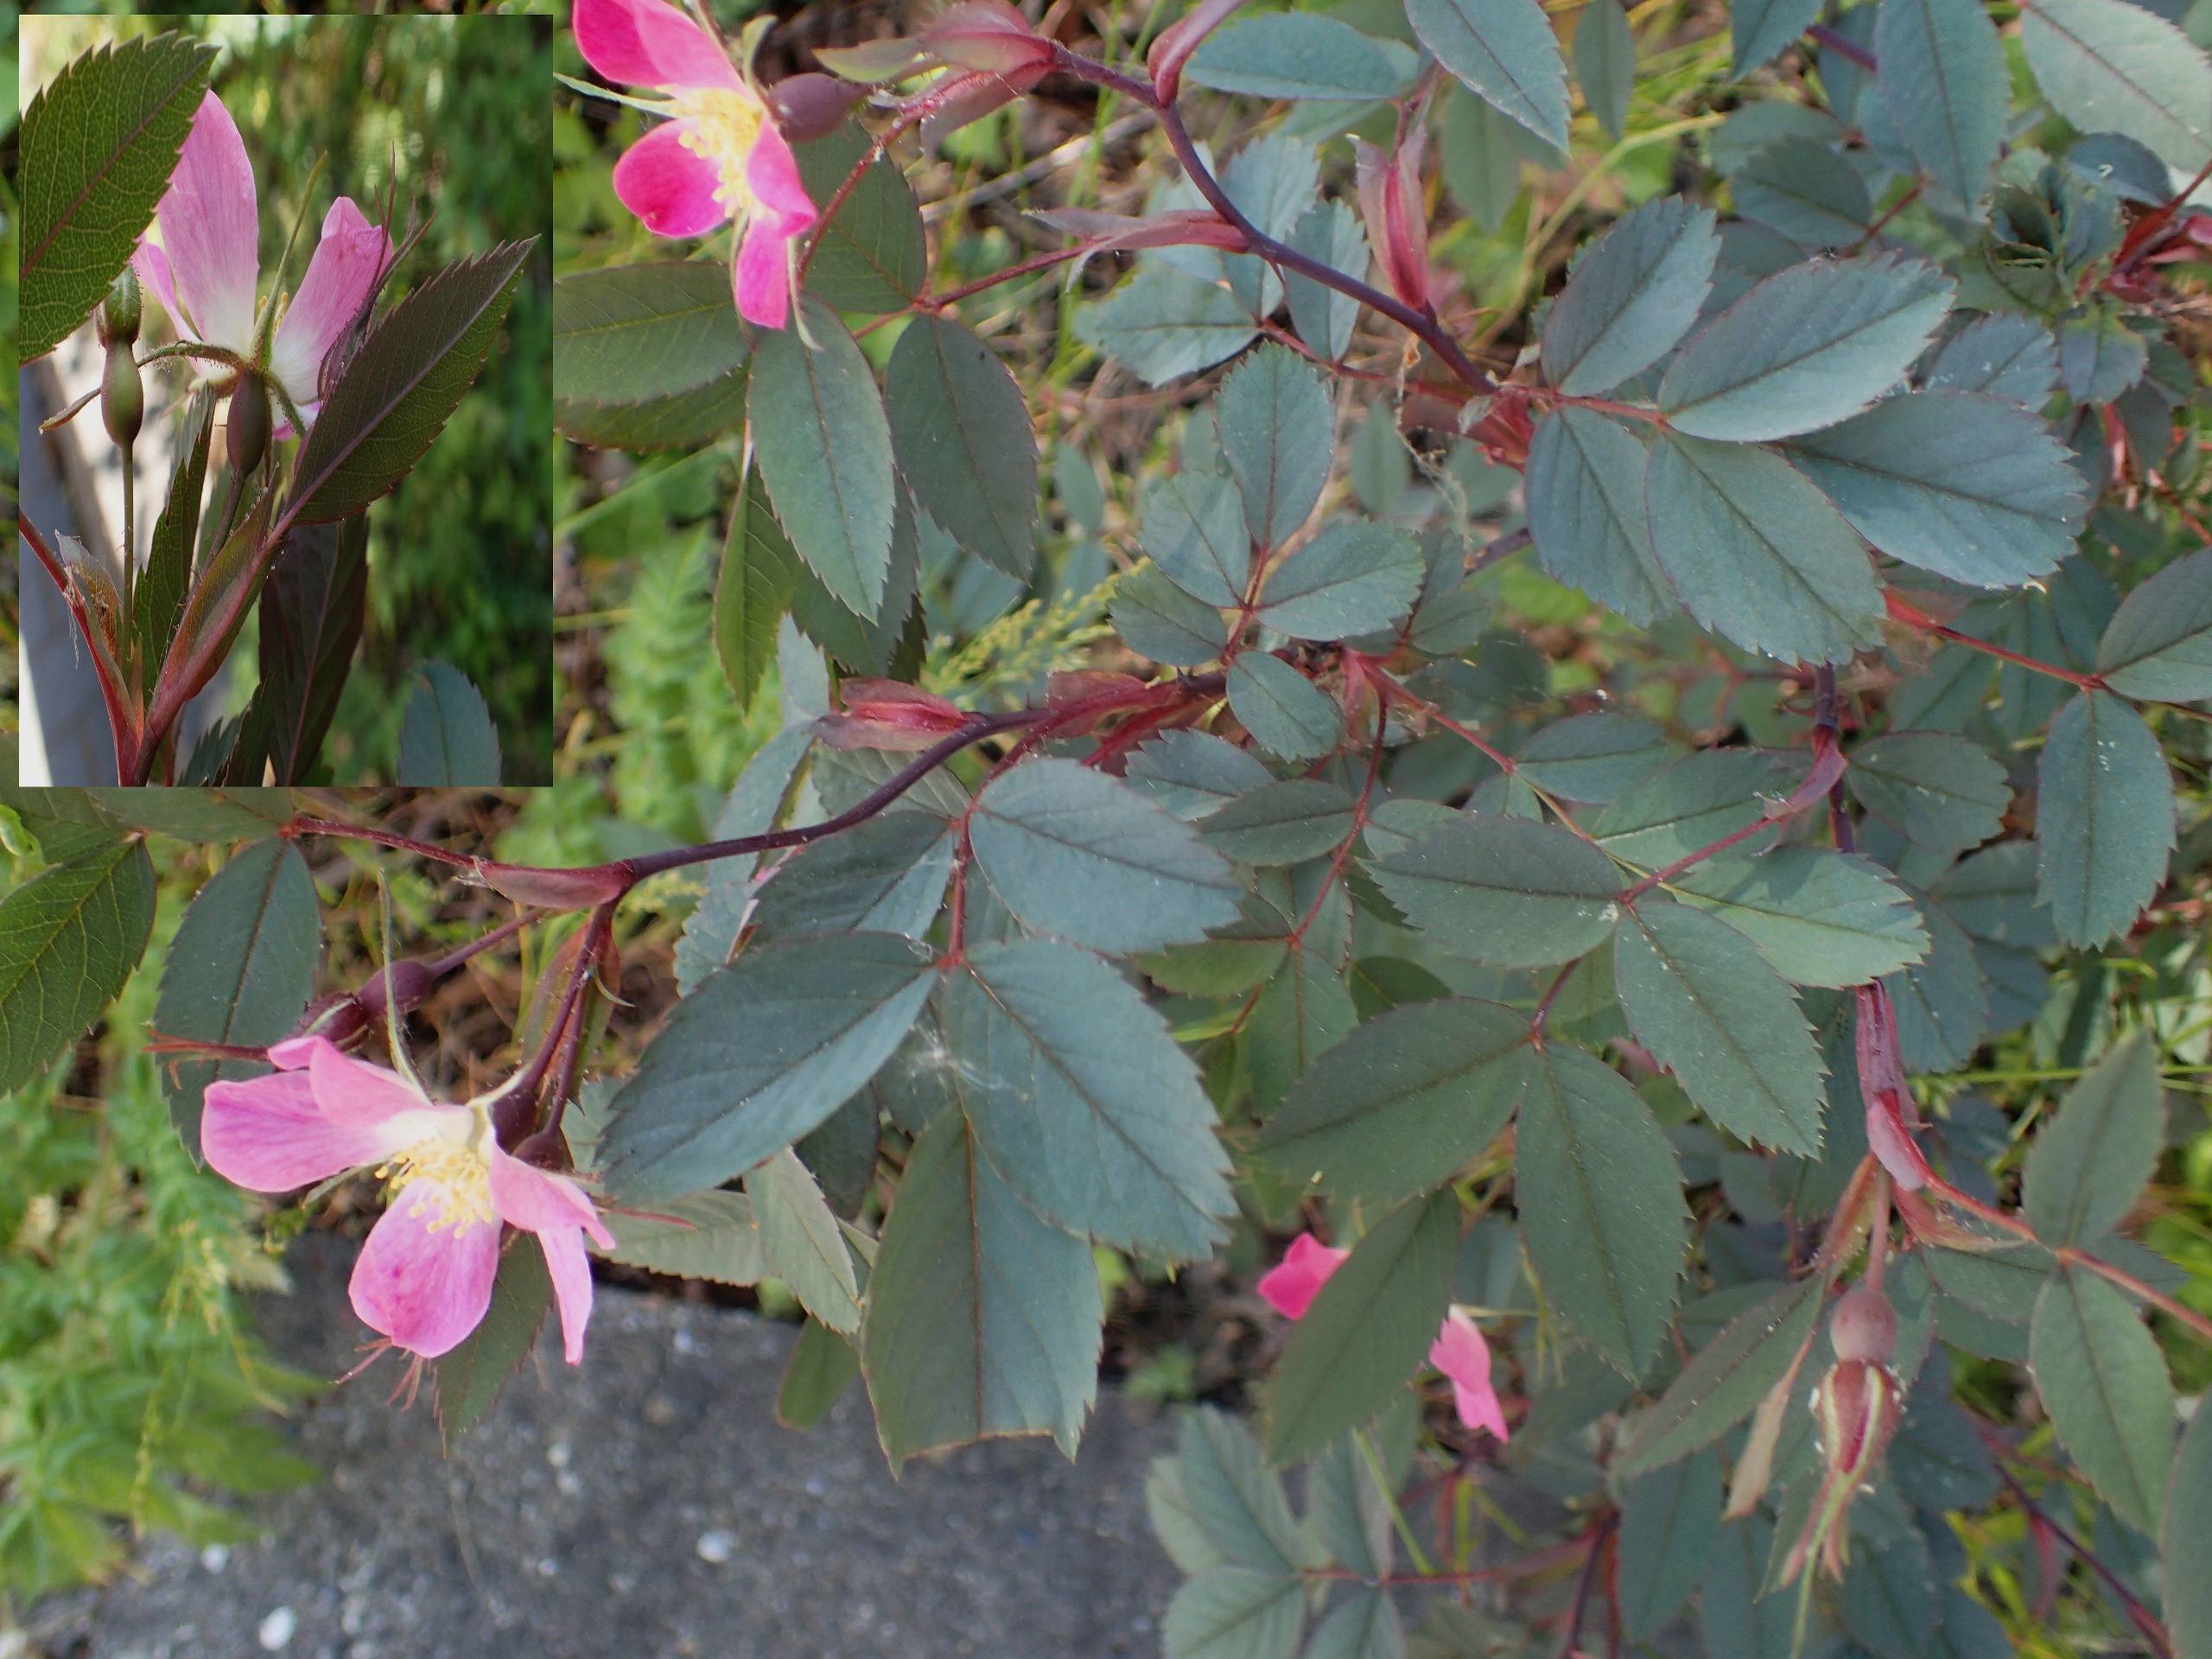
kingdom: Plantae
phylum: Tracheophyta
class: Magnoliopsida
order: Rosales
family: Rosaceae
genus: Rosa
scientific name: Rosa glauca
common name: Kobber-rose
